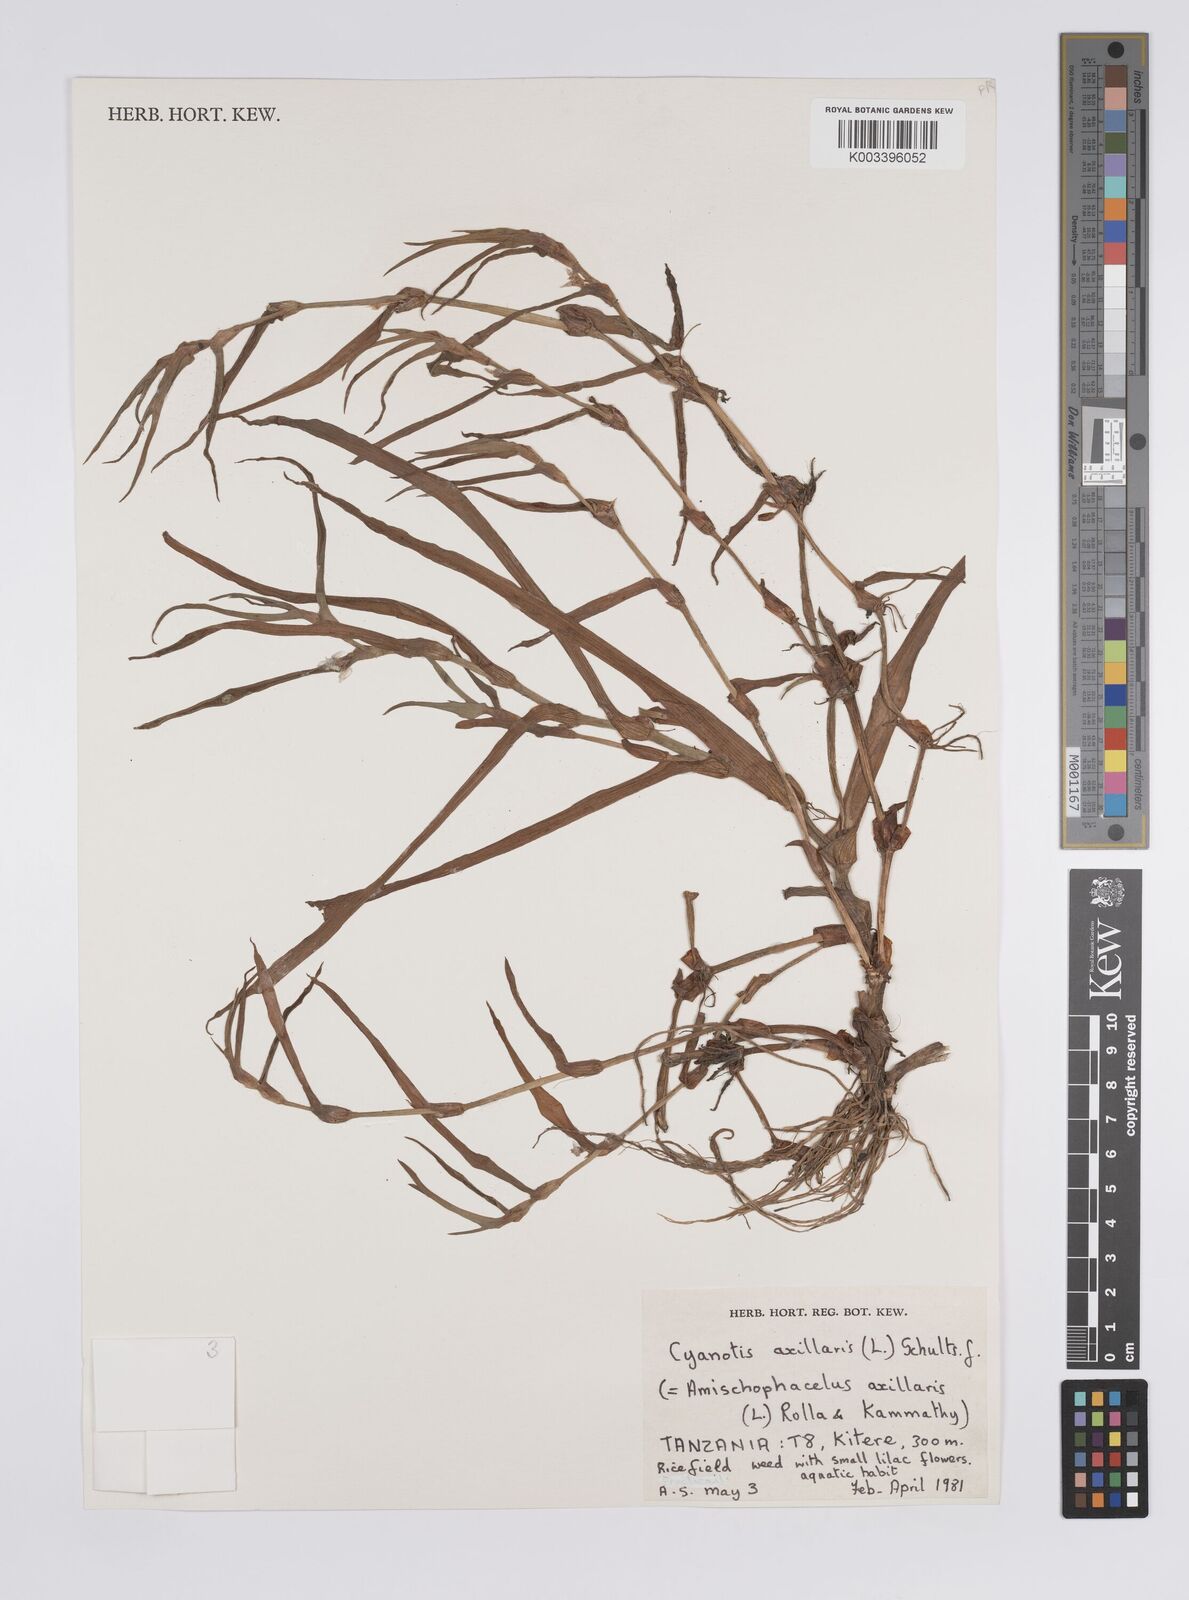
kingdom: Plantae
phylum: Tracheophyta
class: Liliopsida
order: Commelinales
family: Commelinaceae
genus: Cyanotis
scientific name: Cyanotis axillaris
